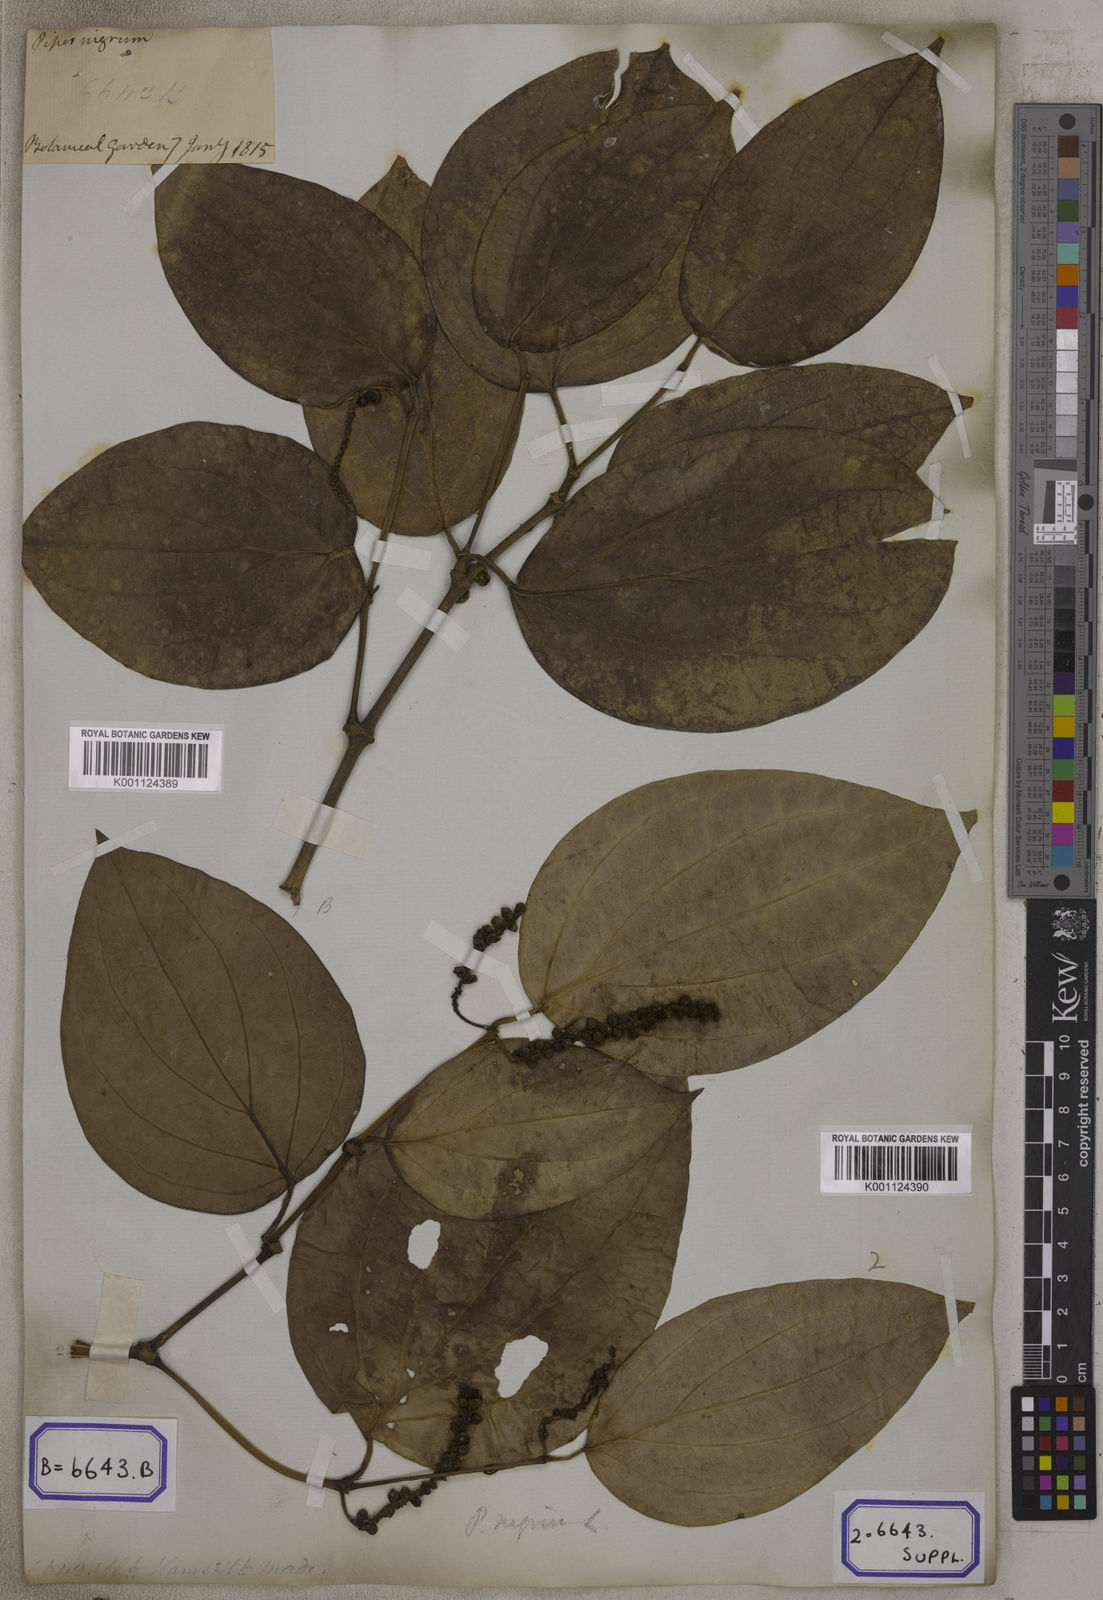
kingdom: Plantae
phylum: Tracheophyta
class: Magnoliopsida
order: Piperales
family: Piperaceae
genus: Piper
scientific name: Piper
